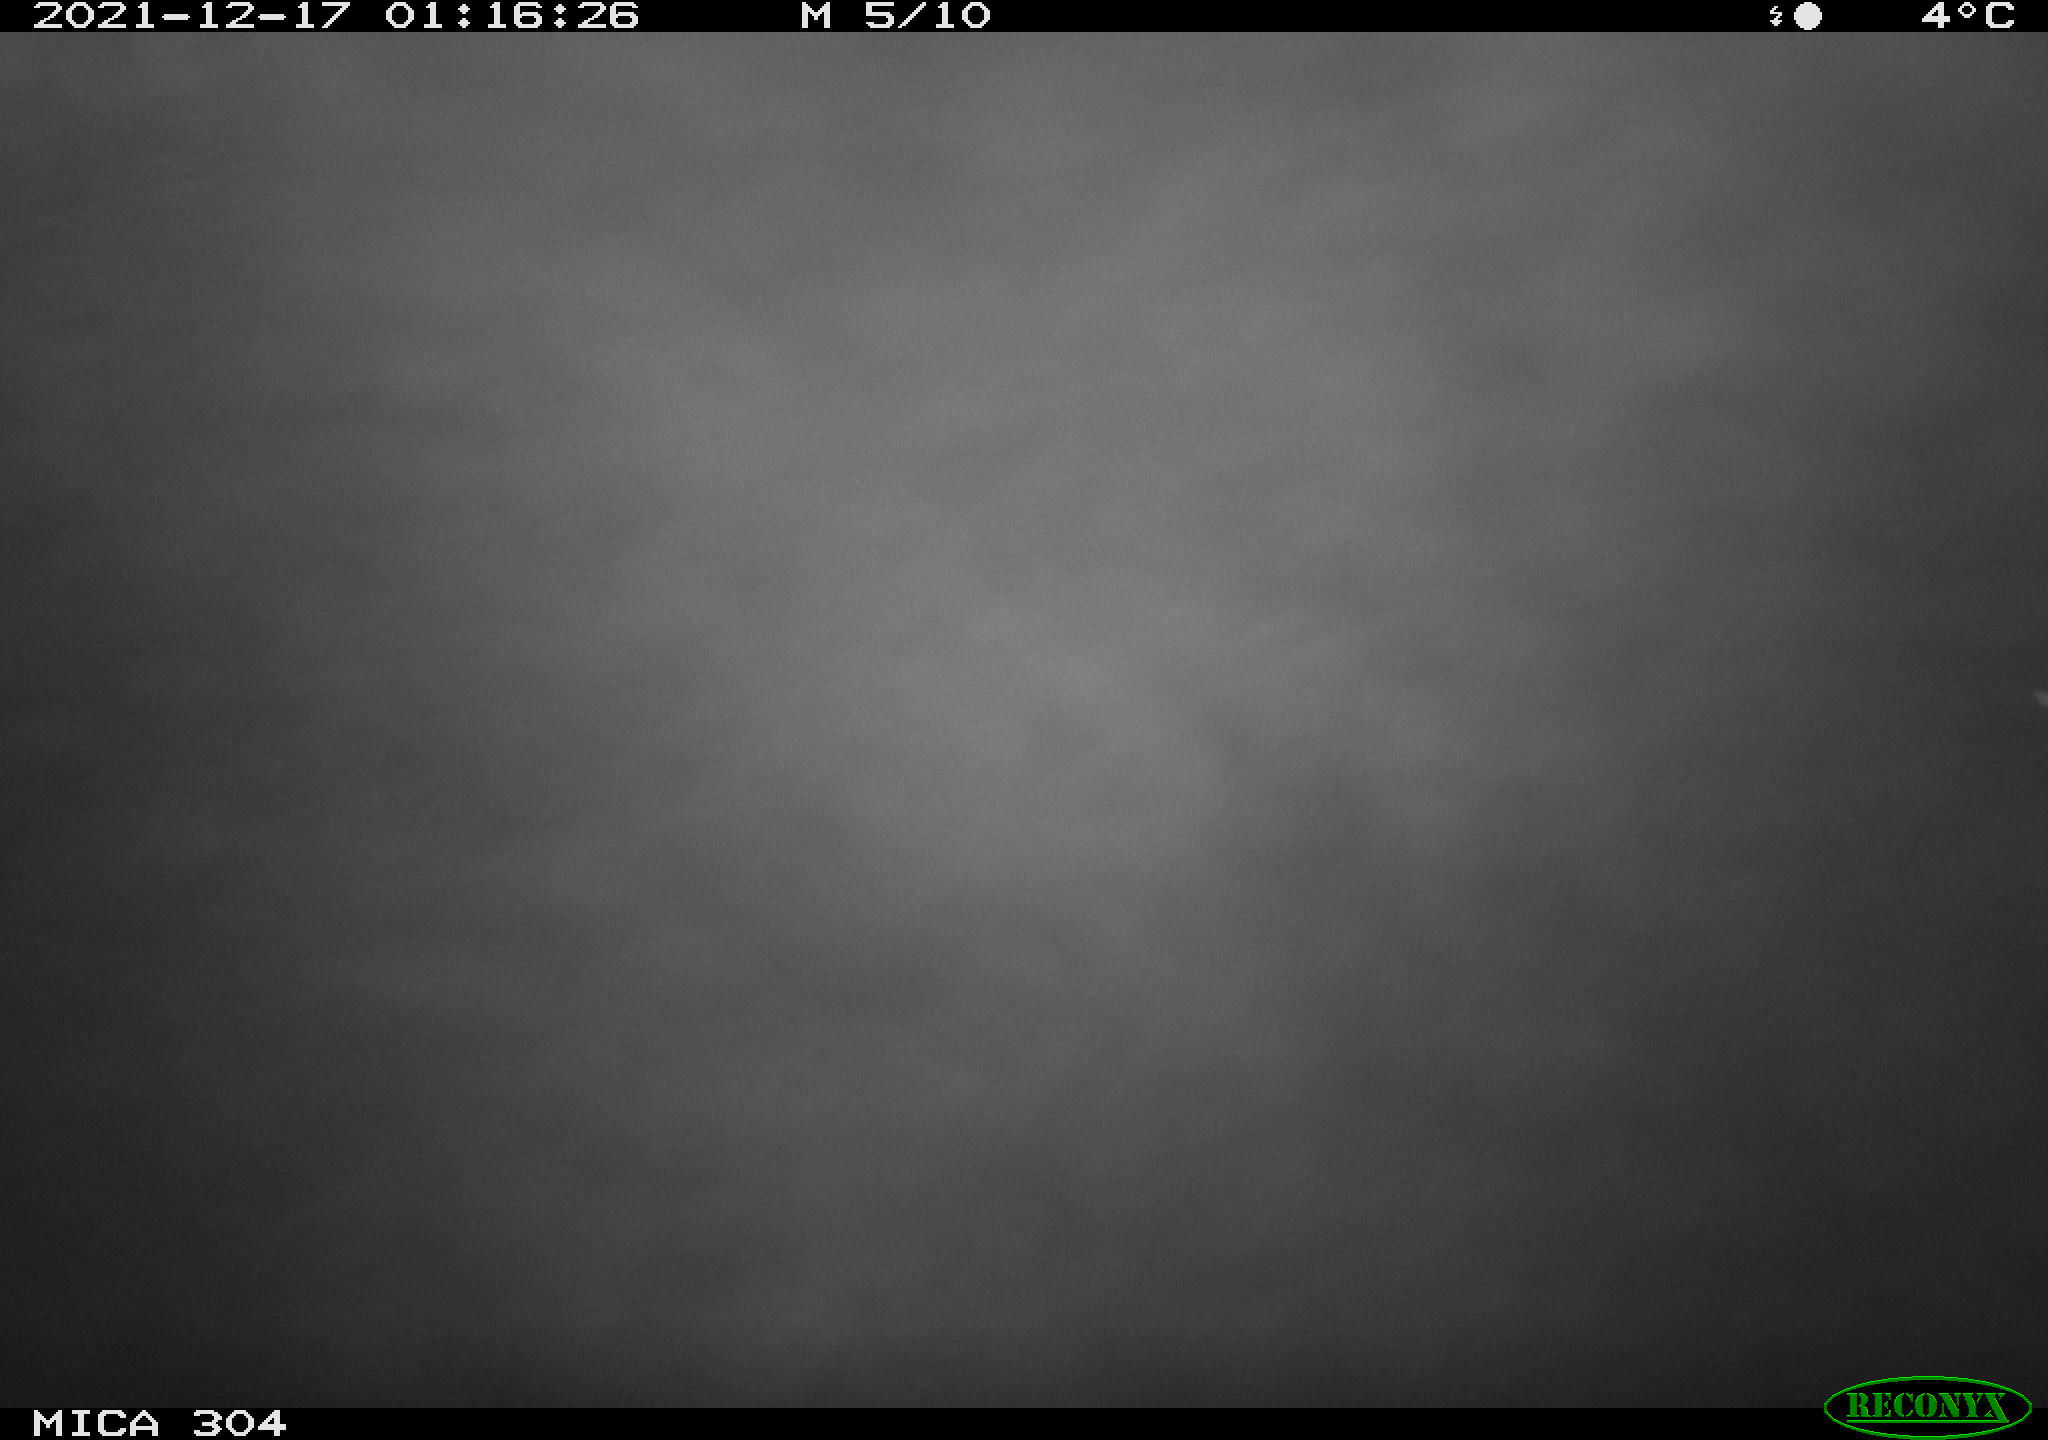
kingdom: Animalia
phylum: Chordata
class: Mammalia
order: Rodentia
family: Cricetidae
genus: Ondatra
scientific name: Ondatra zibethicus
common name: Muskrat
